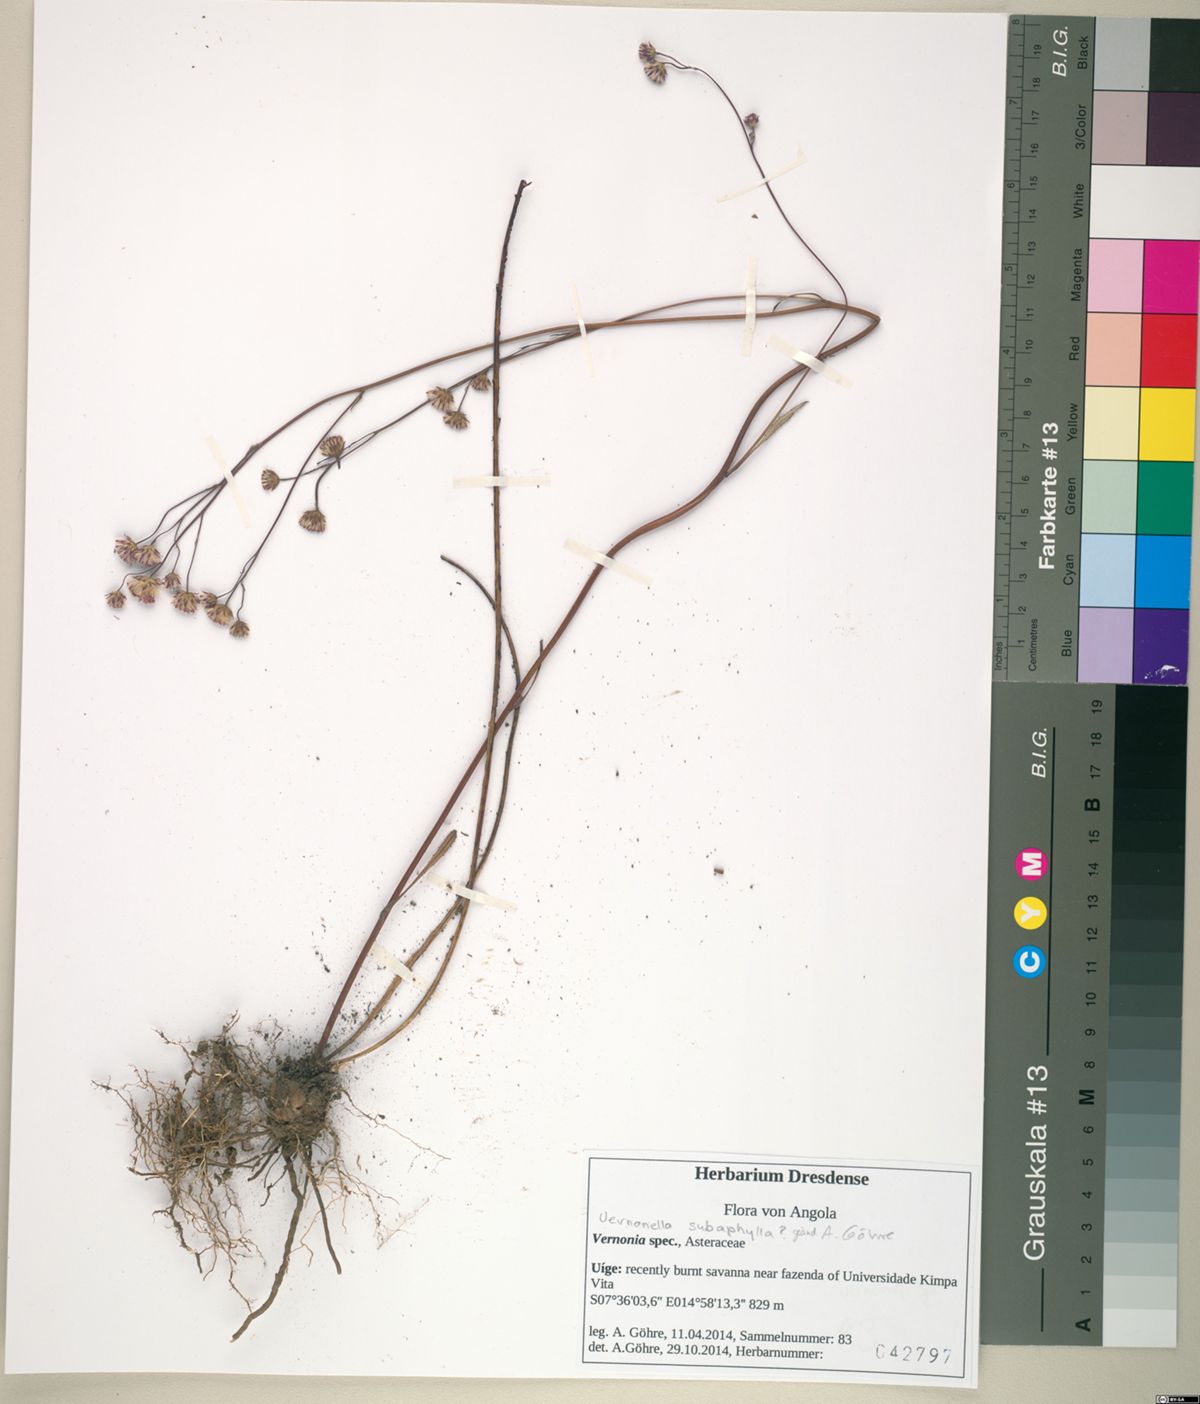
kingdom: Plantae
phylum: Tracheophyta
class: Magnoliopsida
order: Asterales
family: Asteraceae
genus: Vernonella
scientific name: Vernonella subaphylla
